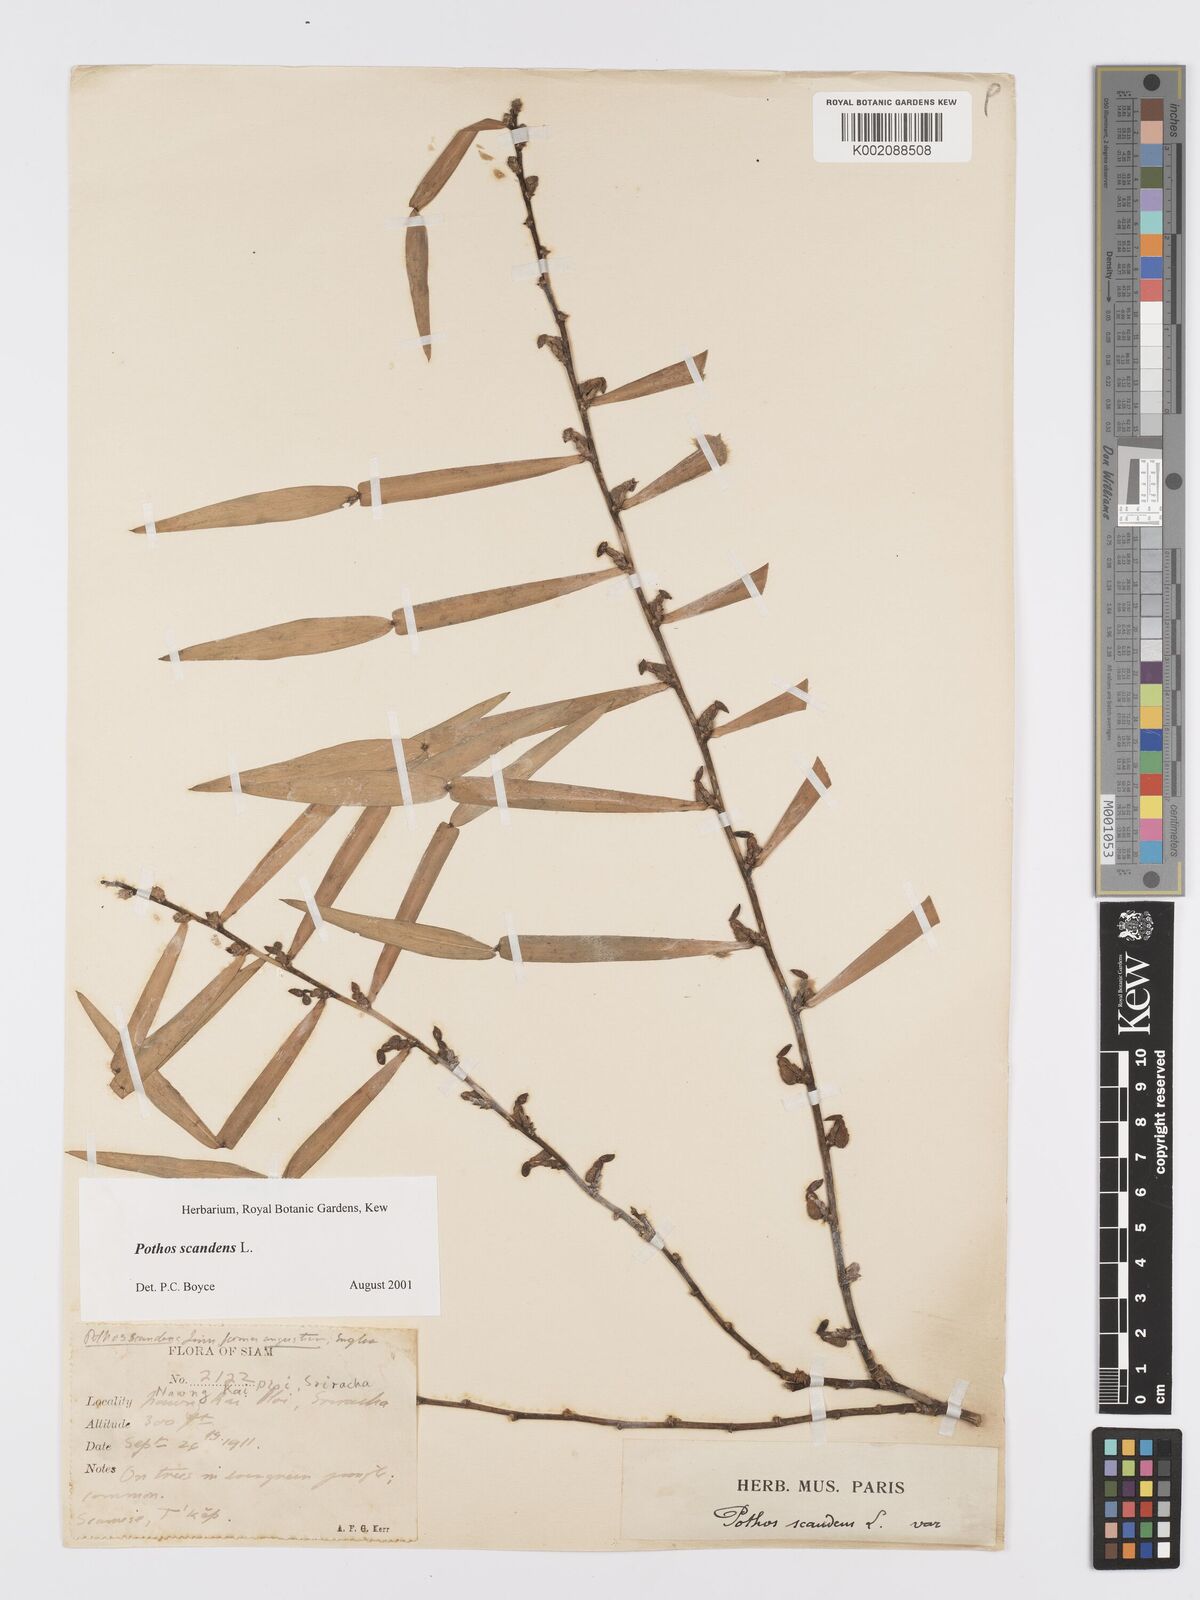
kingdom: Plantae
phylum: Tracheophyta
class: Liliopsida
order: Alismatales
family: Araceae
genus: Pothos
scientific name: Pothos scandens
